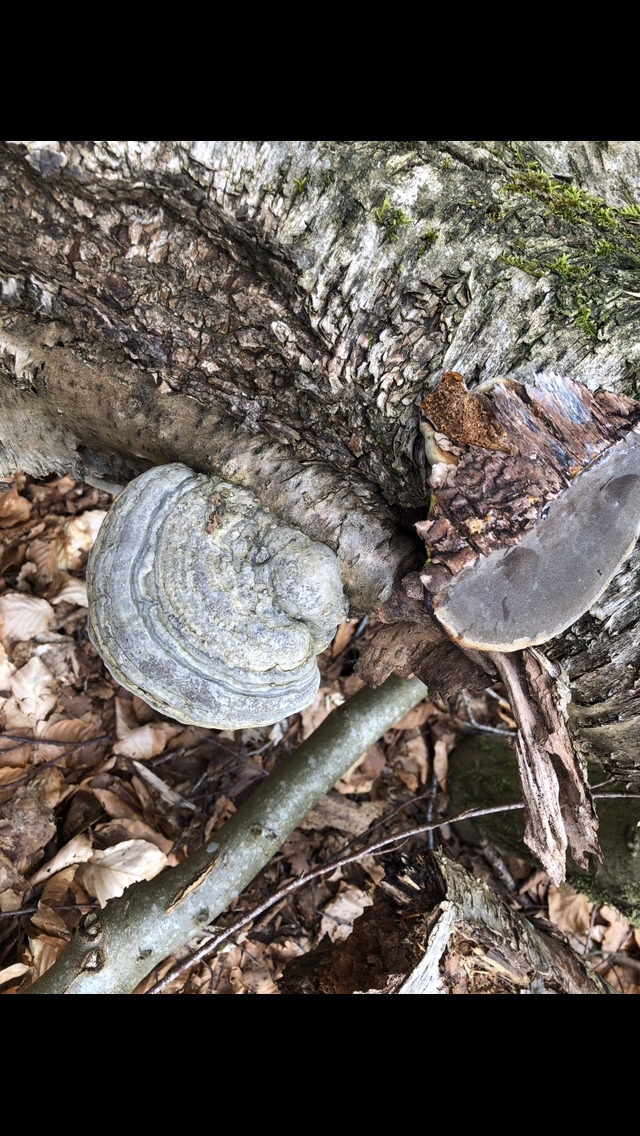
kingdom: Fungi
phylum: Basidiomycota
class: Agaricomycetes
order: Polyporales
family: Polyporaceae
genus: Fomes
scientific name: Fomes fomentarius
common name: tøndersvamp
